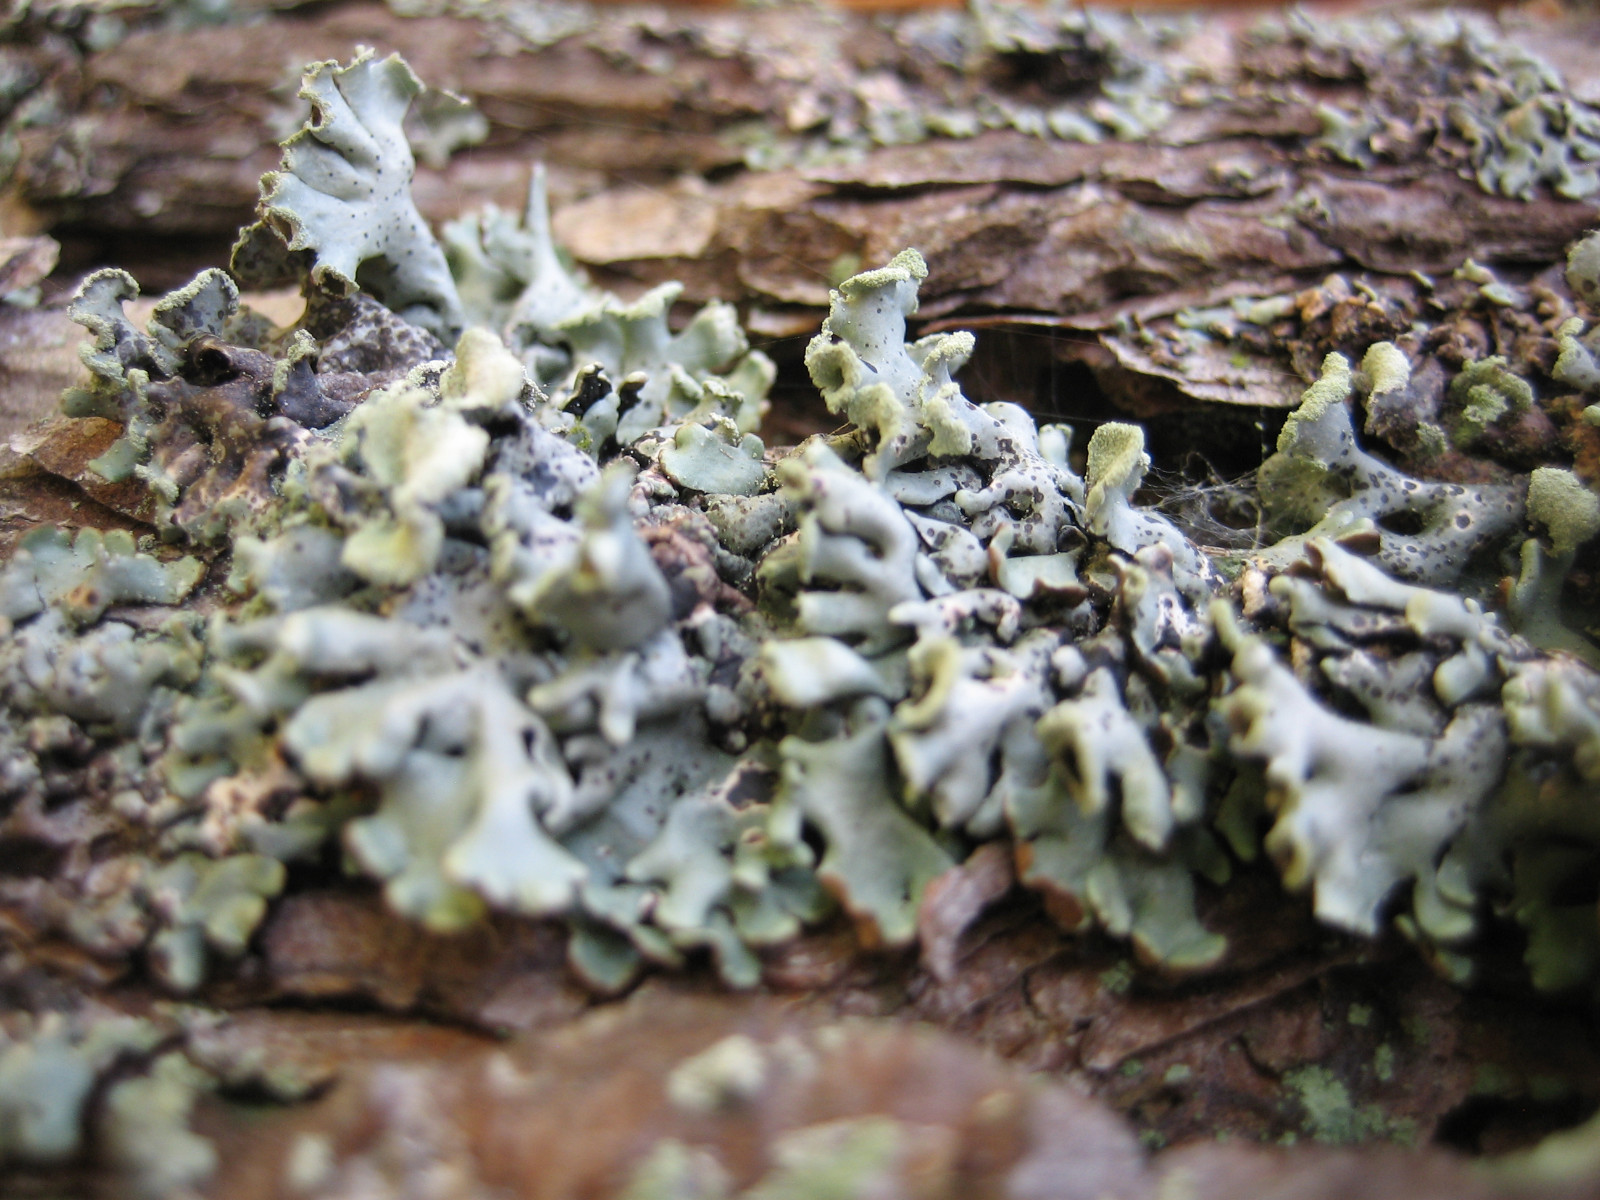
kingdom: Fungi
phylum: Ascomycota
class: Lecanoromycetes
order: Lecanorales
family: Parmeliaceae
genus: Hypogymnia
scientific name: Hypogymnia physodes
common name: almindelig kvistlav
